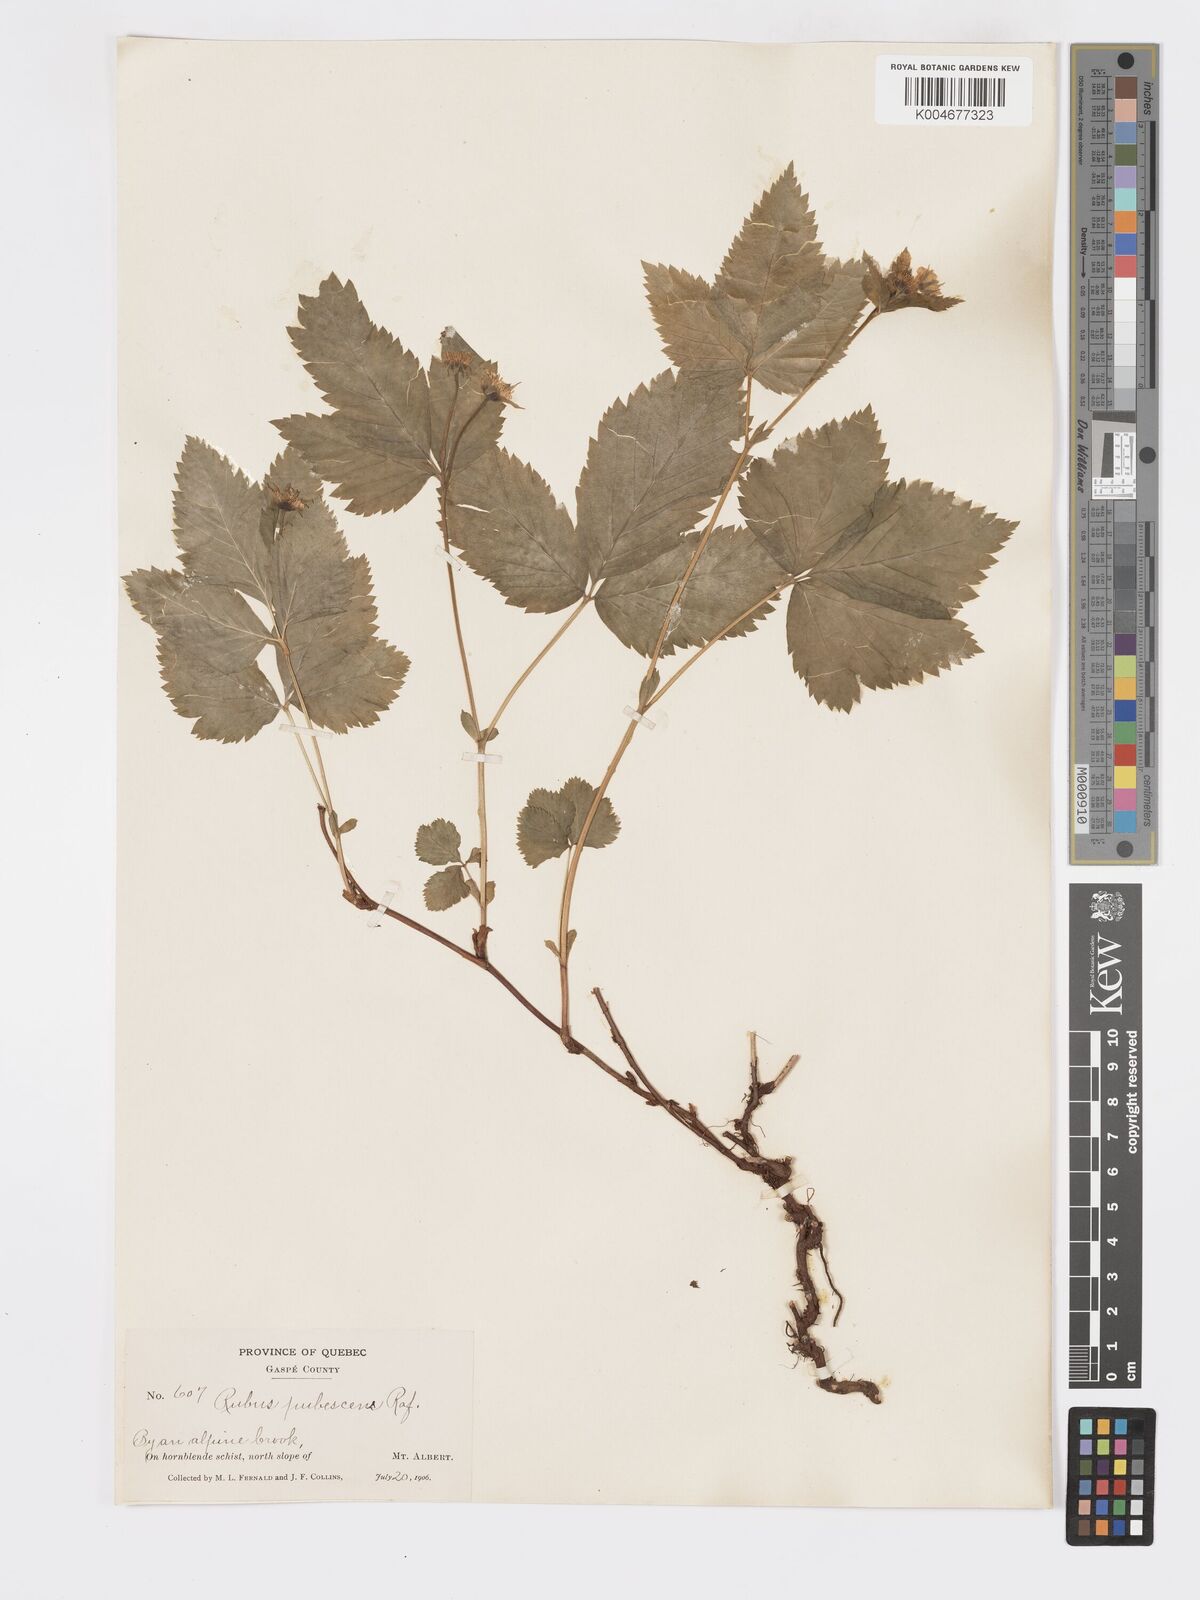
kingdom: Plantae
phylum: Tracheophyta
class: Magnoliopsida
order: Rosales
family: Rosaceae
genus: Rubus
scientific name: Rubus
